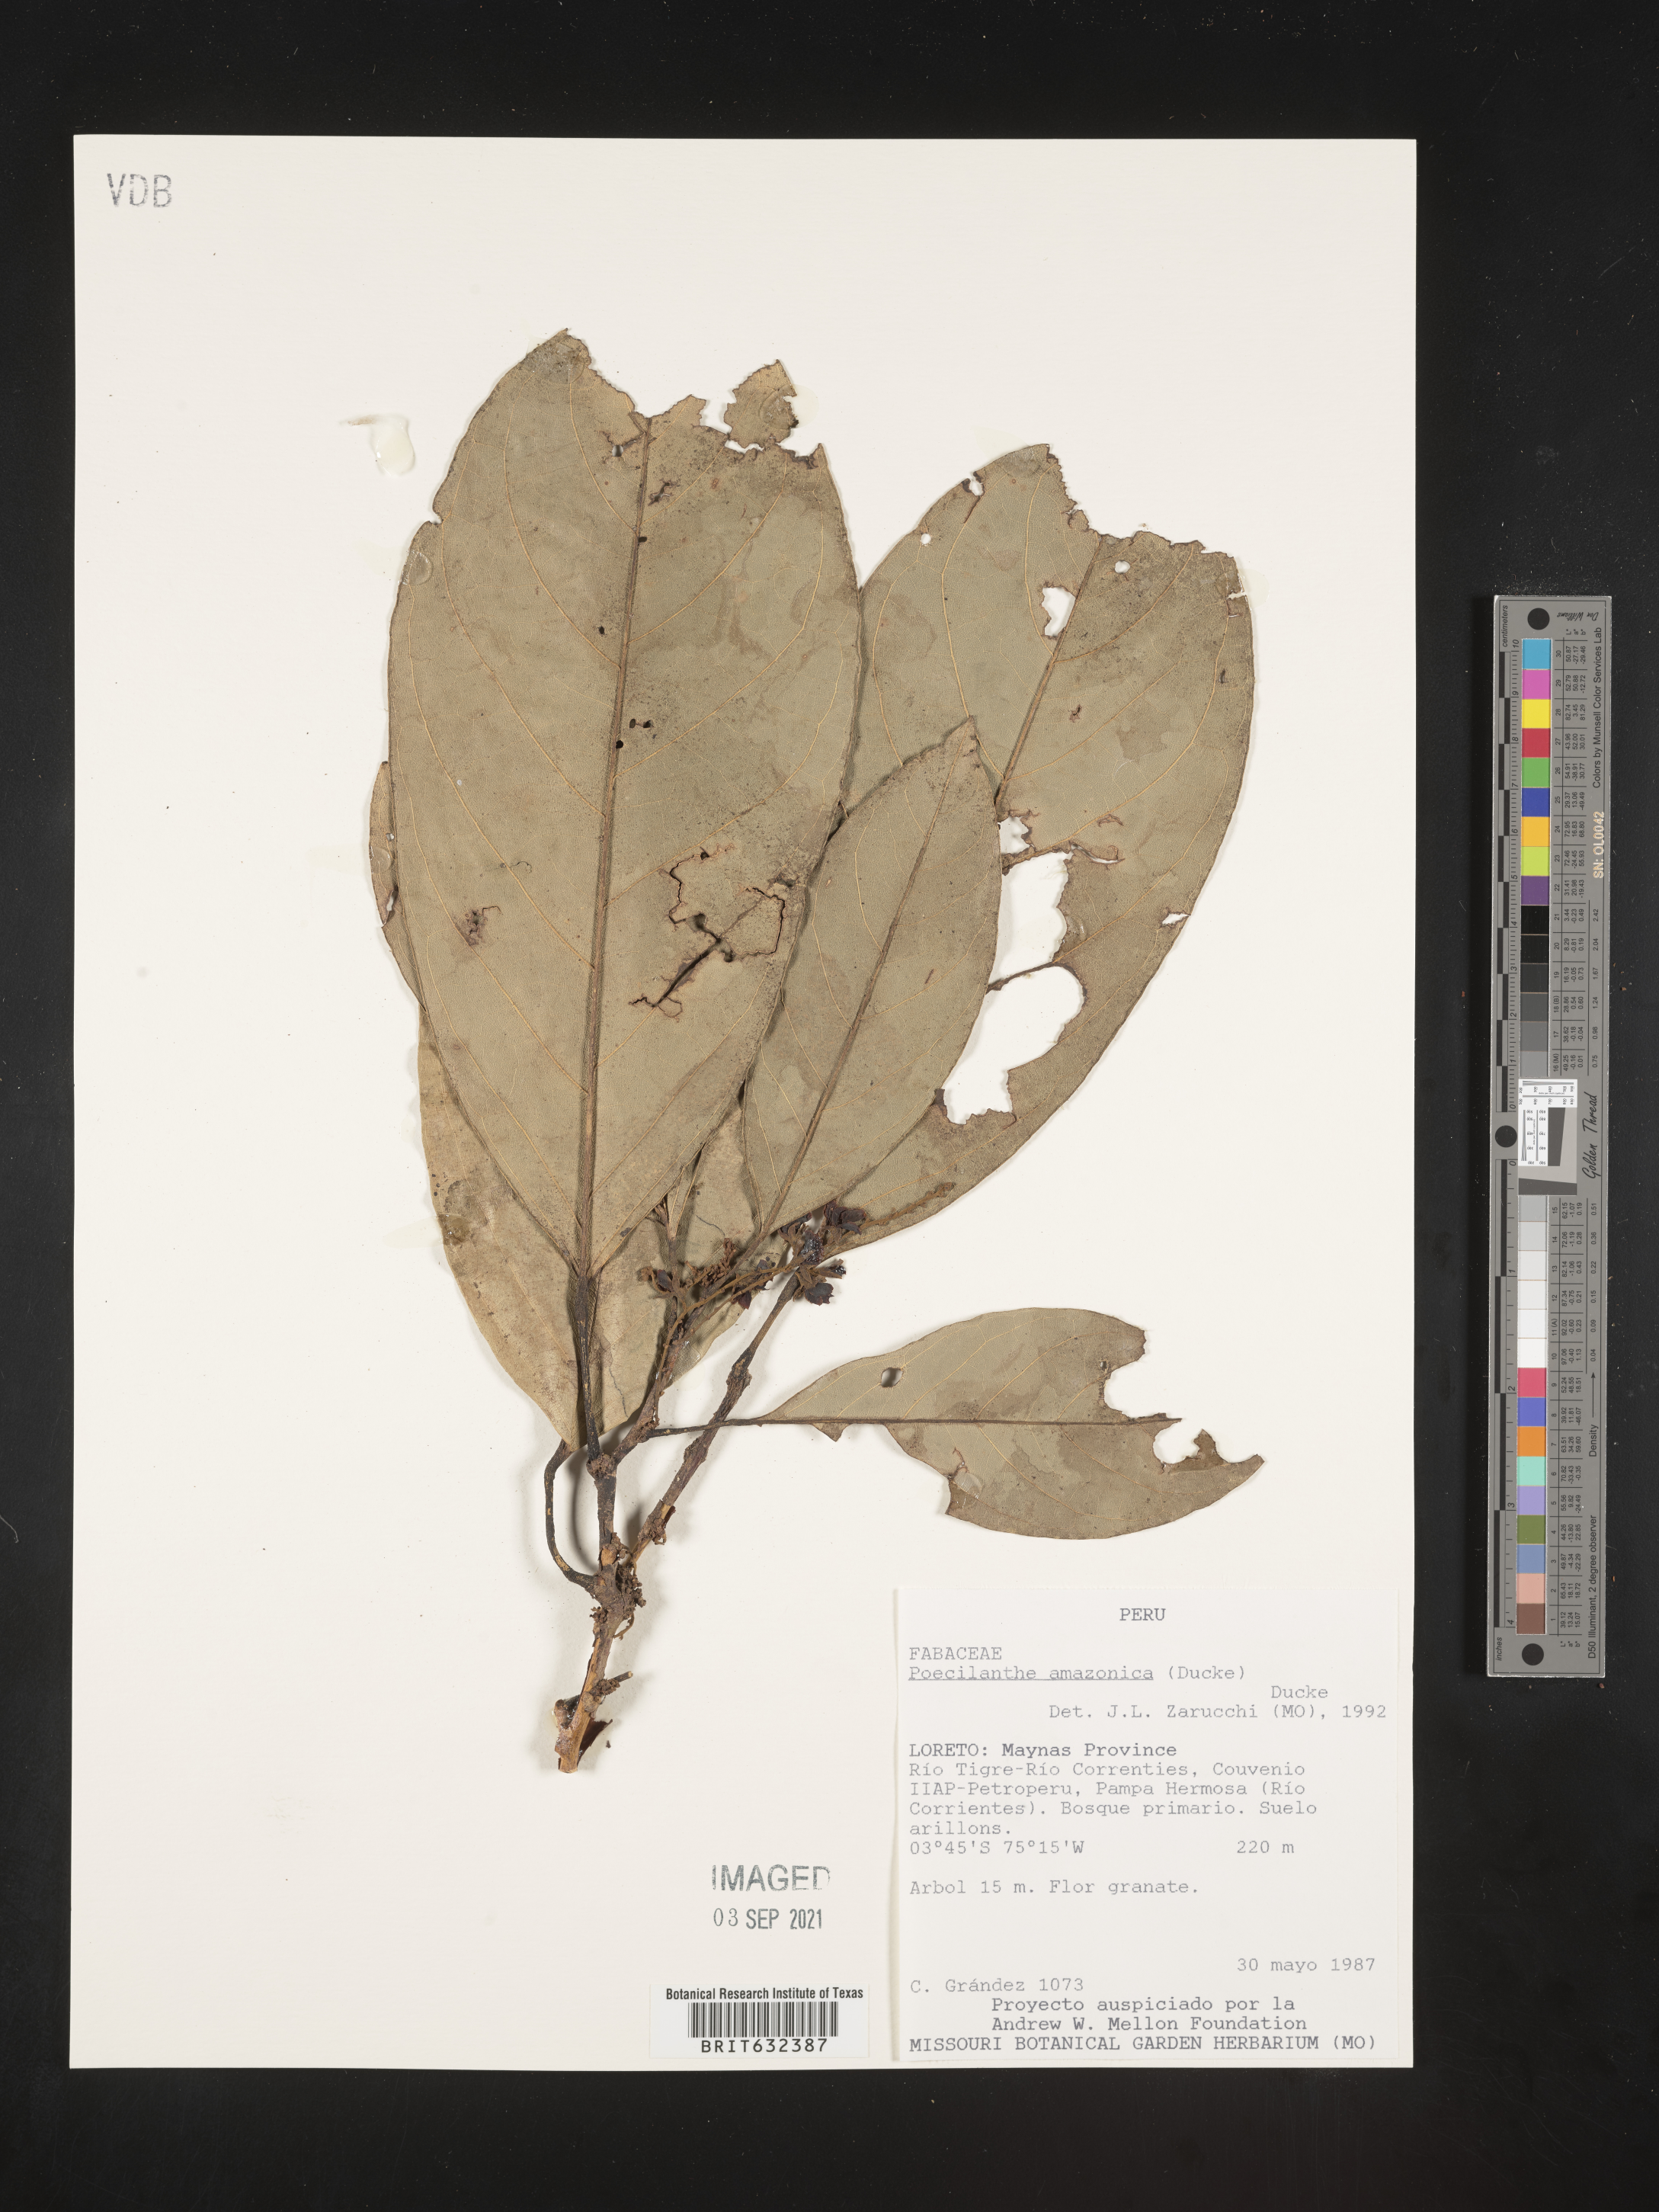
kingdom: Plantae
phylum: Tracheophyta
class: Magnoliopsida
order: Fabales
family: Fabaceae
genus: Poecilanthe
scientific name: Poecilanthe
